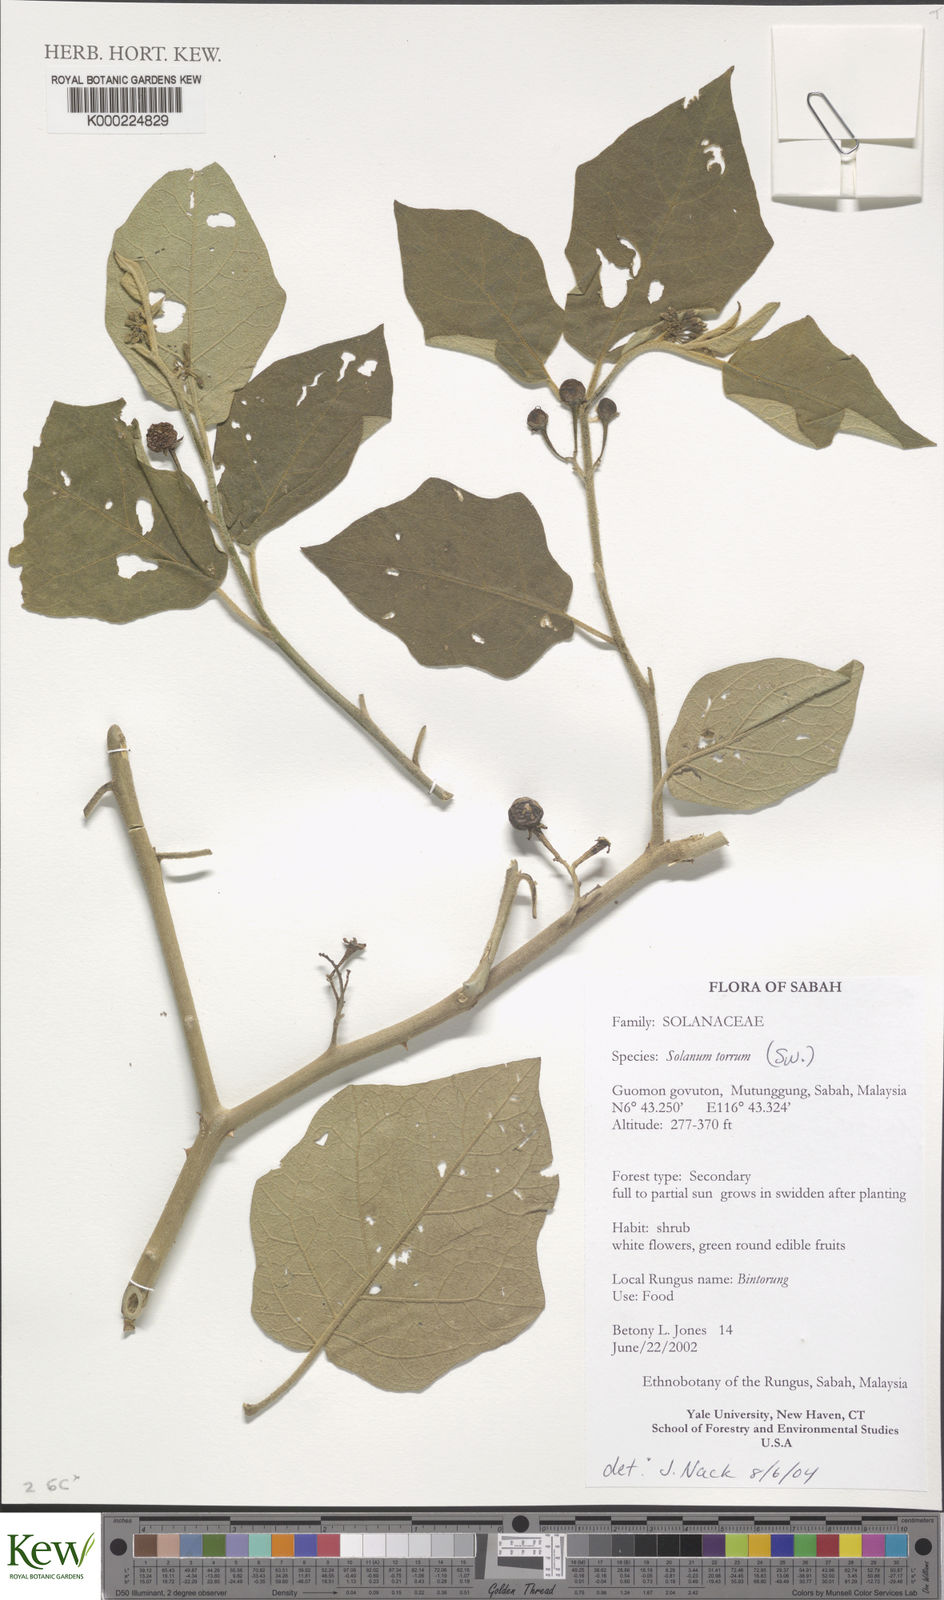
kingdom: Plantae
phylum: Tracheophyta
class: Magnoliopsida
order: Solanales
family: Solanaceae
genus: Solanum
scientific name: Solanum torvum
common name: Turkey berry
